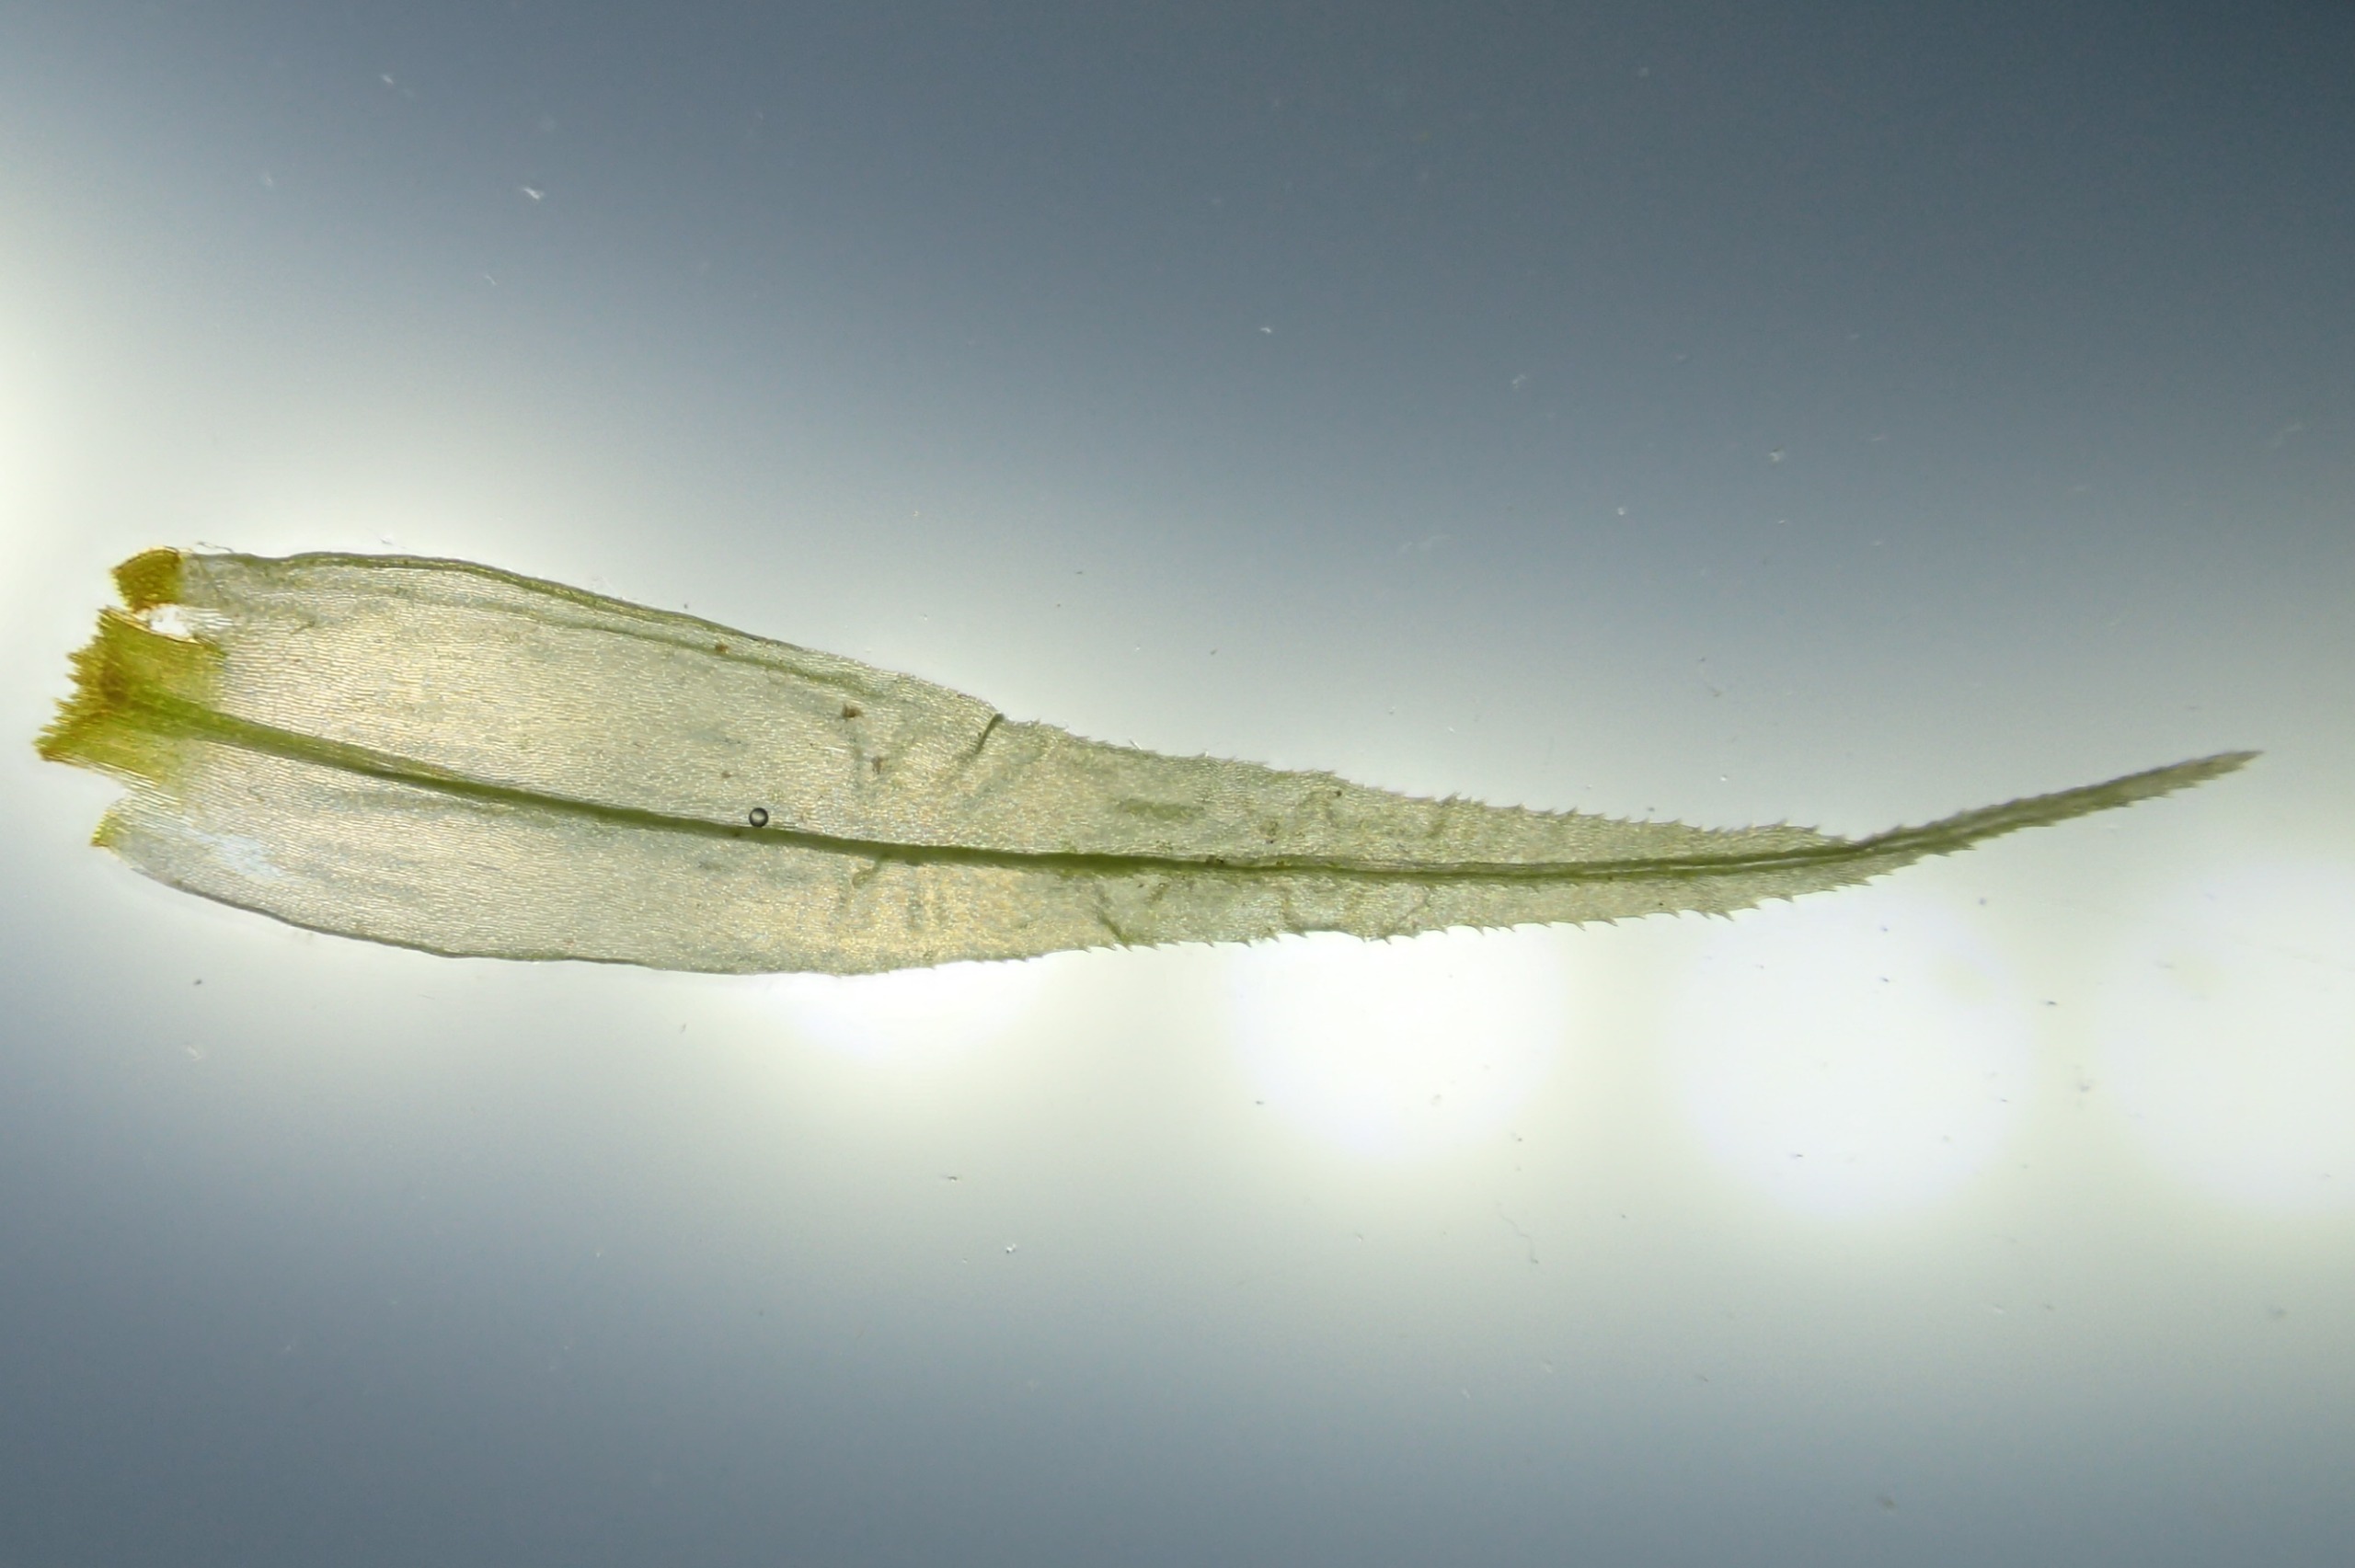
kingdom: Plantae
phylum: Bryophyta
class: Bryopsida
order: Dicranales
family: Dicranaceae
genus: Dicranum
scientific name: Dicranum polysetum
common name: Bølgebladet kløvtand
